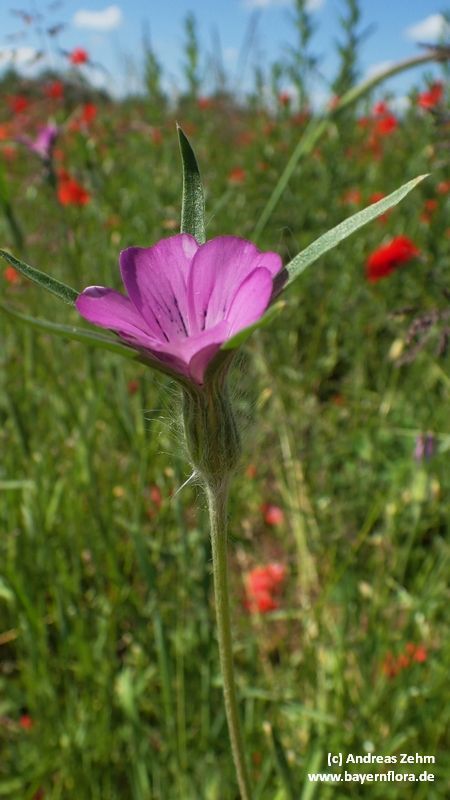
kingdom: Plantae
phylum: Tracheophyta
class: Magnoliopsida
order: Caryophyllales
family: Caryophyllaceae
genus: Agrostemma
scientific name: Agrostemma githago
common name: Common corncockle
